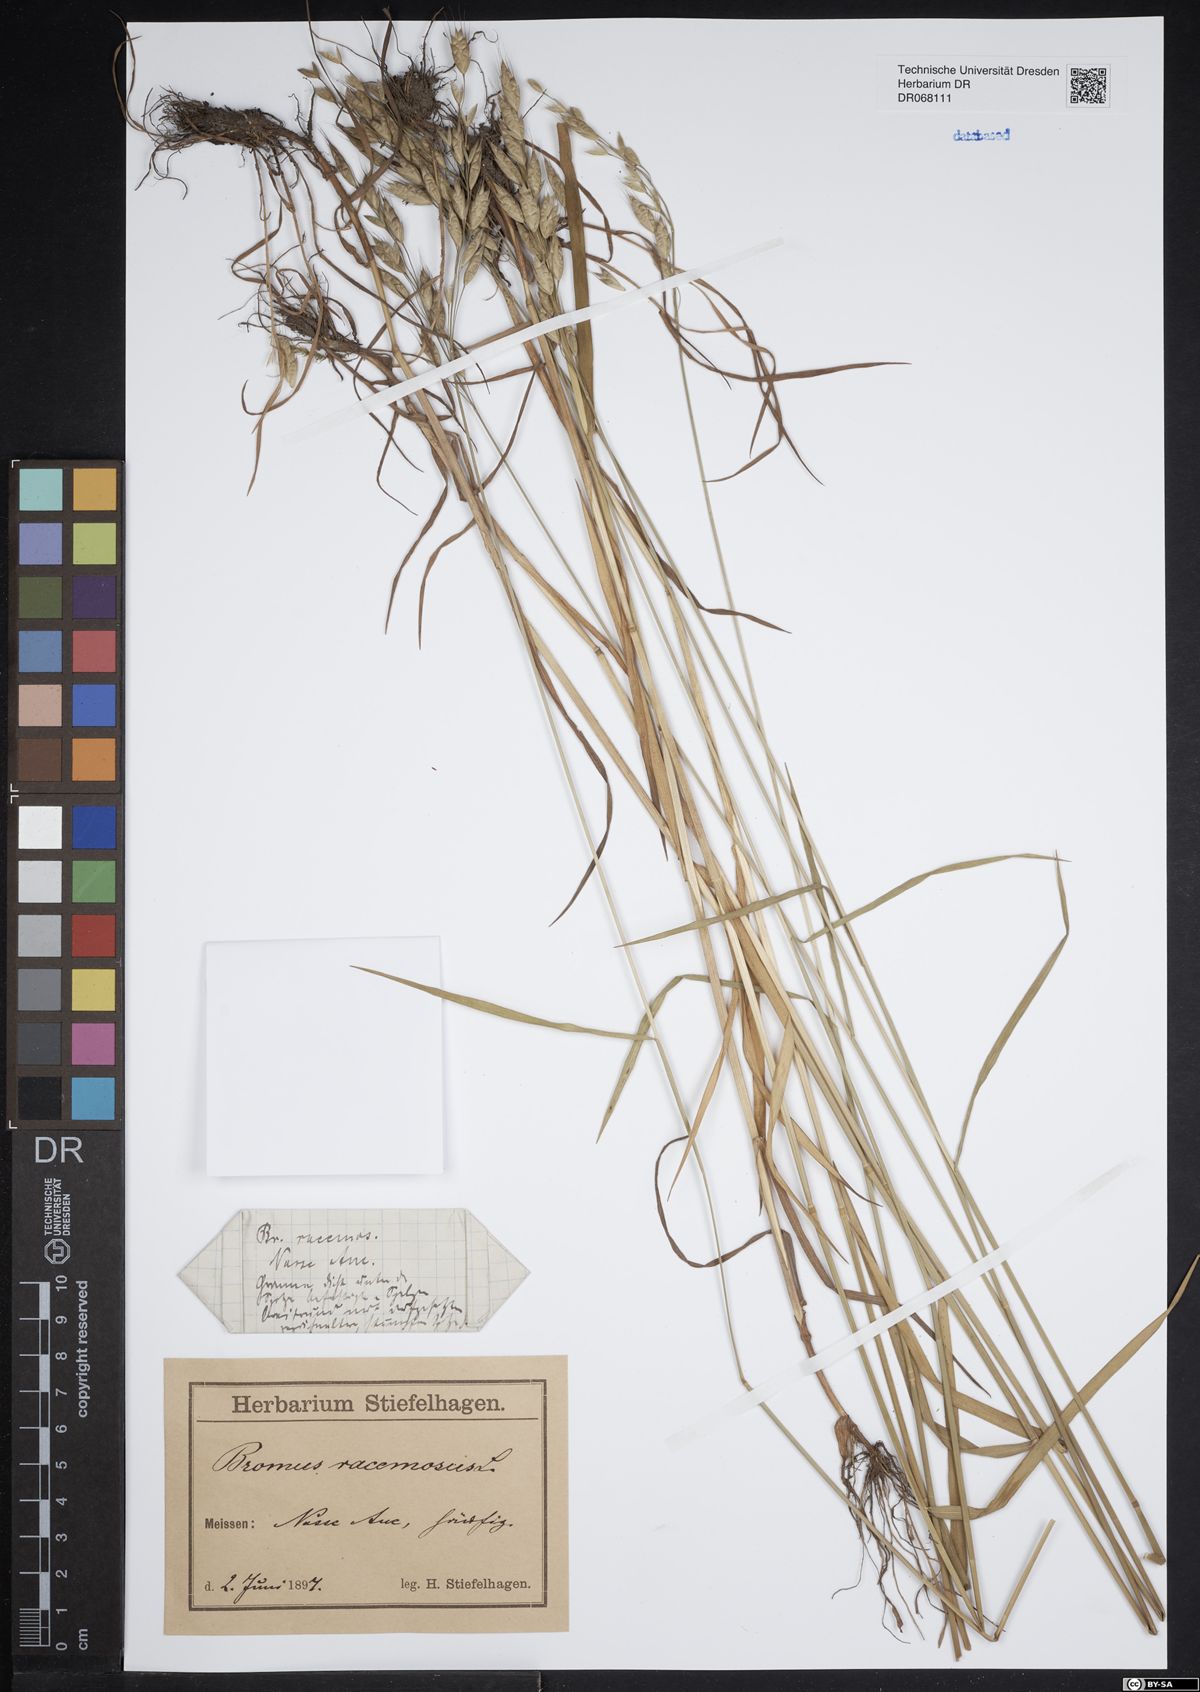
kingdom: Plantae
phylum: Tracheophyta
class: Liliopsida
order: Poales
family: Poaceae
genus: Bromus
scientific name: Bromus racemosus
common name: Bald brome
